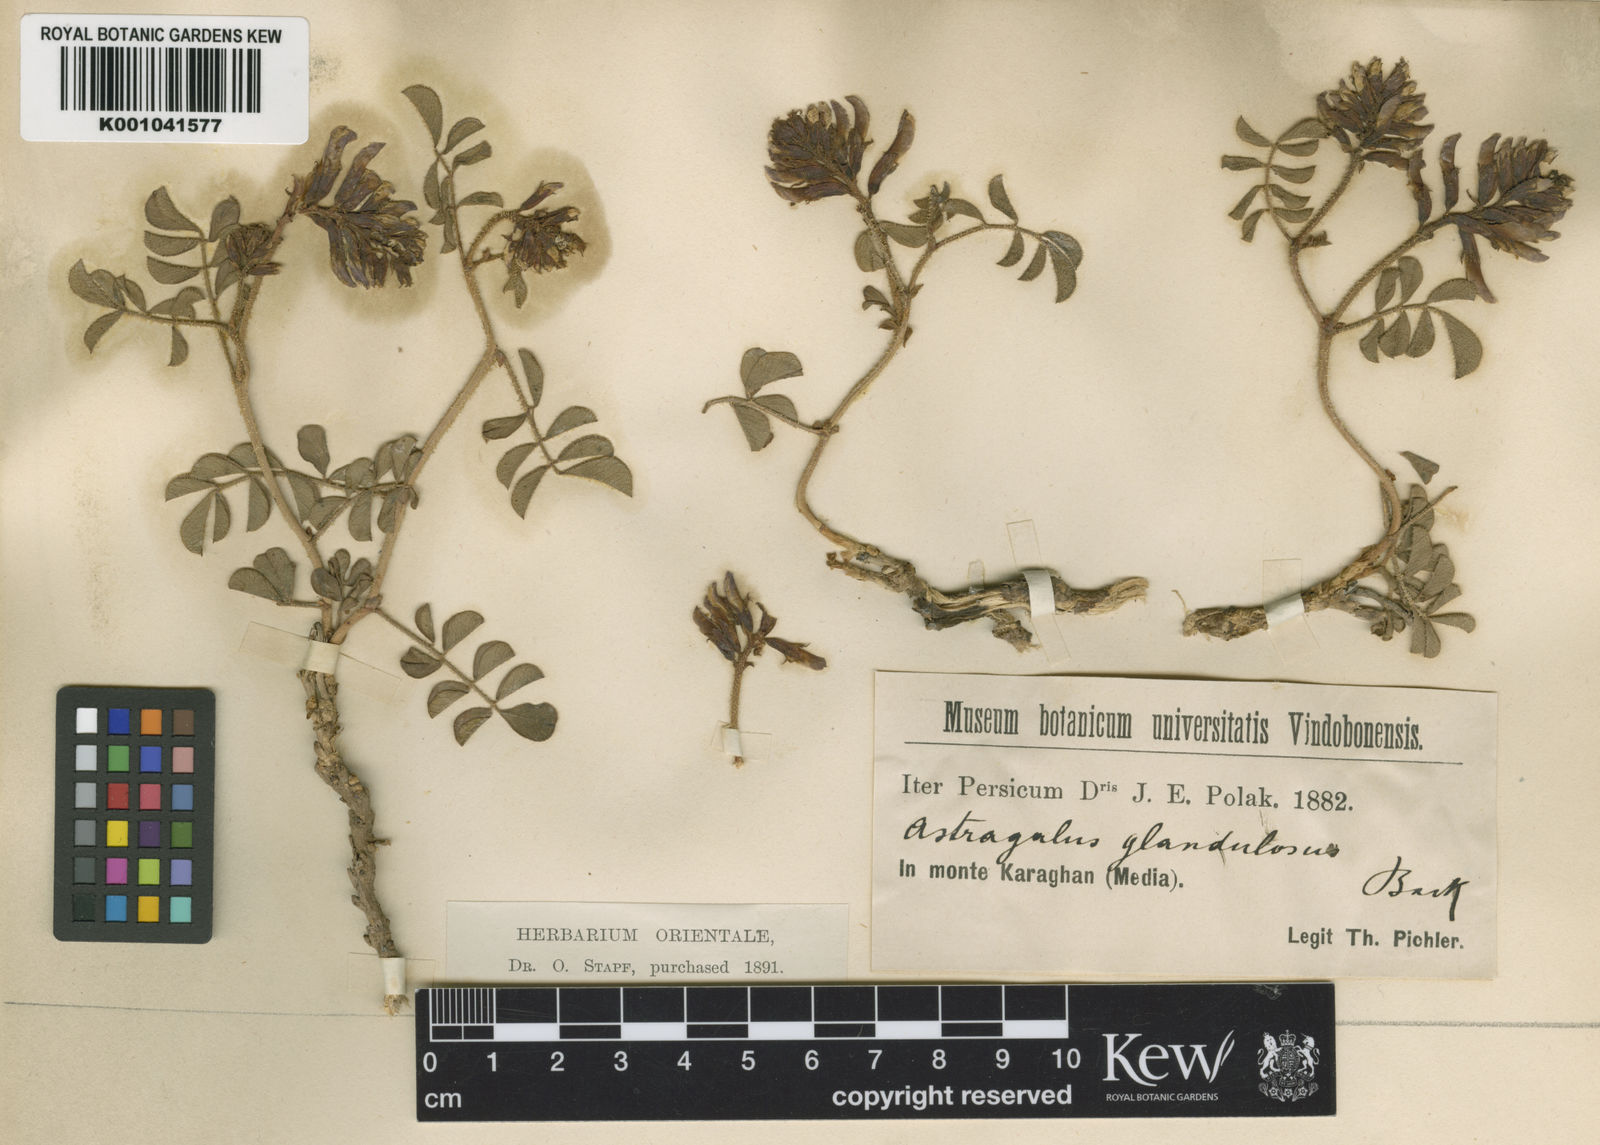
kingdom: Plantae
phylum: Tracheophyta
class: Magnoliopsida
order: Fabales
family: Fabaceae
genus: Glycyrrhiza
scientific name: Glycyrrhiza aspera
